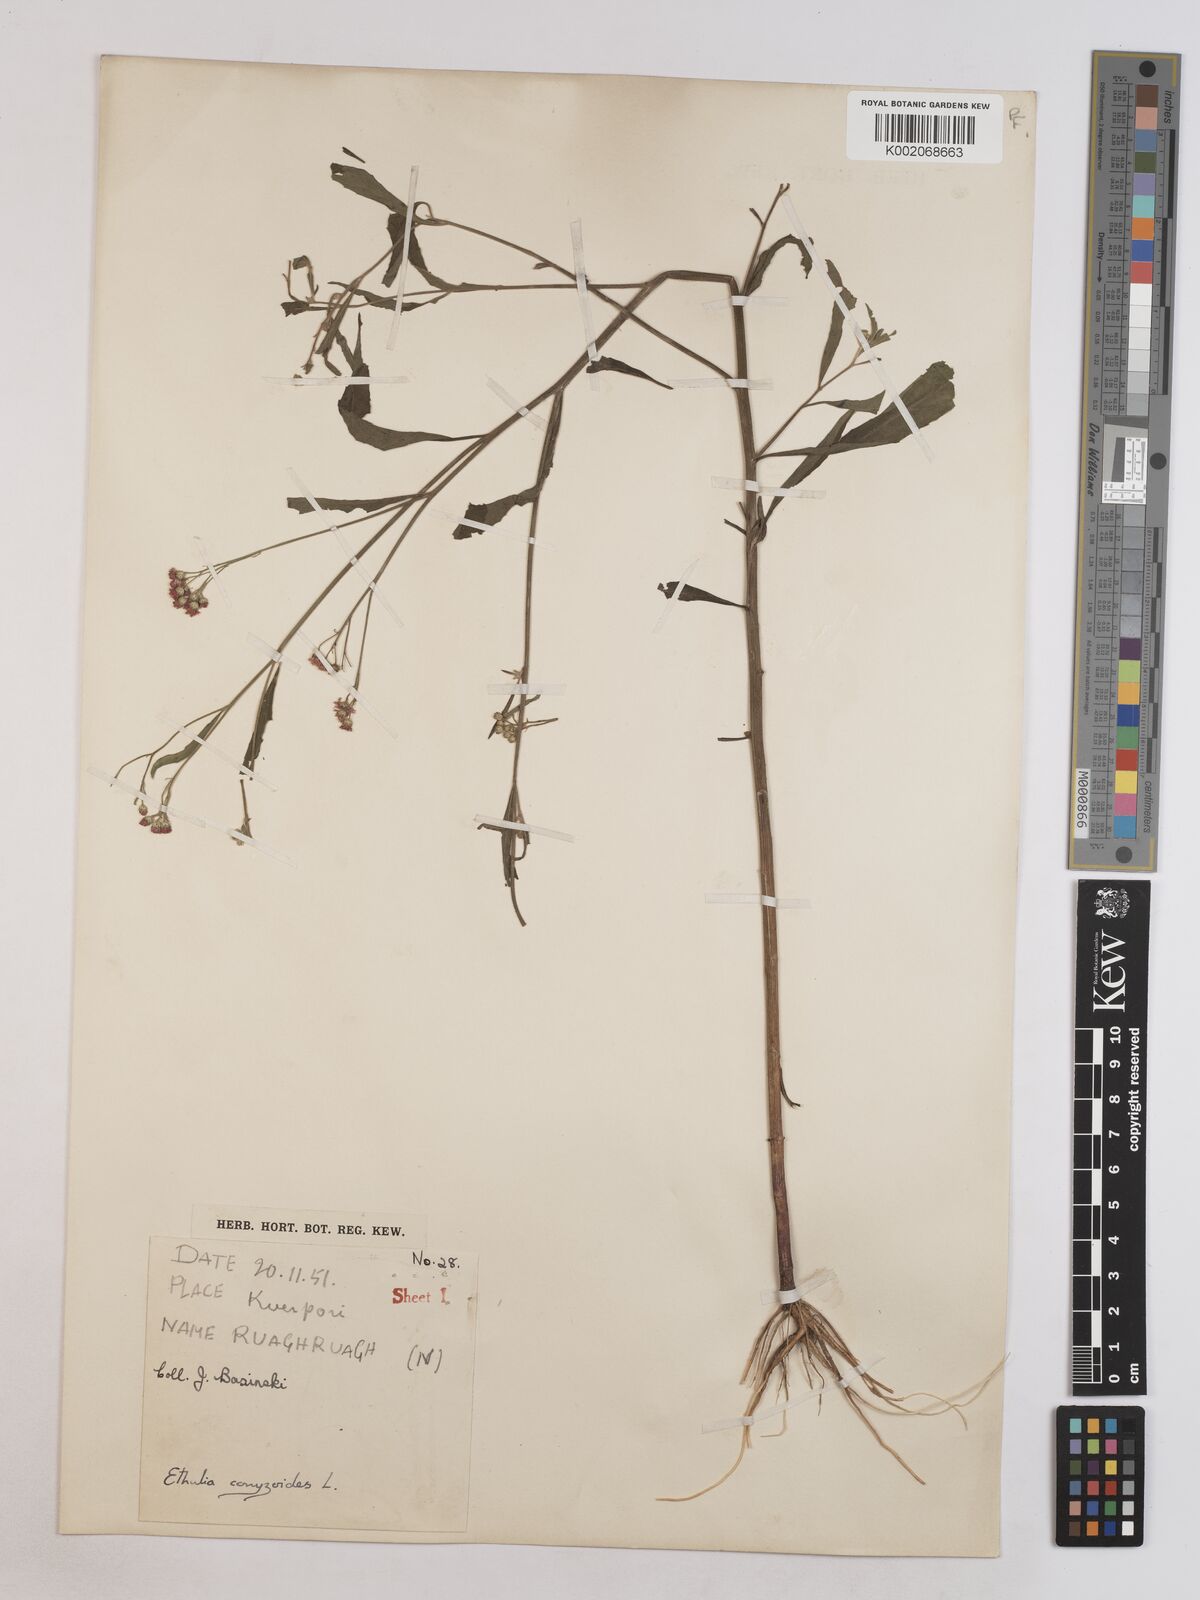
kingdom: Plantae
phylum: Tracheophyta
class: Magnoliopsida
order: Asterales
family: Asteraceae
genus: Ethulia
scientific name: Ethulia gracilis
